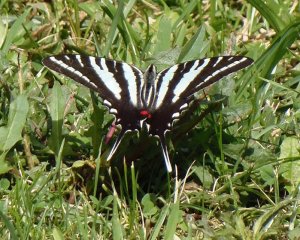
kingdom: Animalia
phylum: Arthropoda
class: Insecta
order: Lepidoptera
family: Papilionidae
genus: Protographium
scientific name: Protographium marcellus
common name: Zebra Swallowtail
